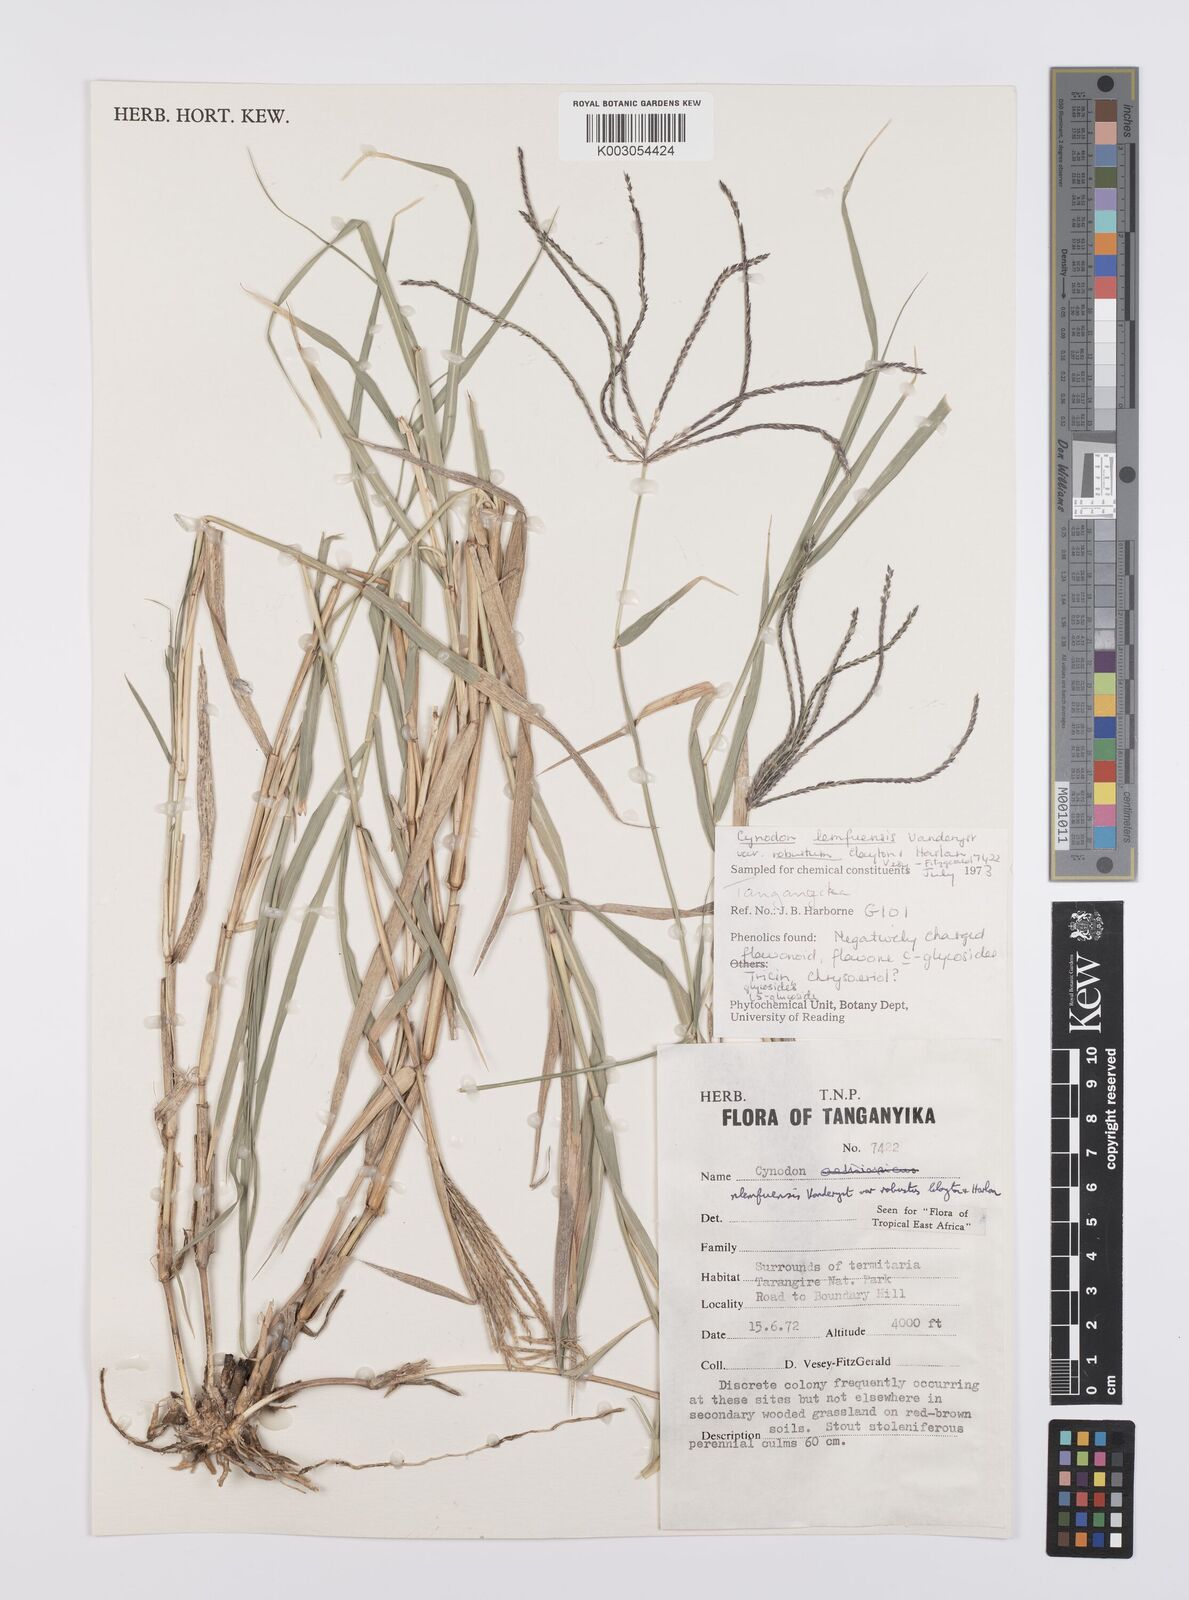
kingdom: Plantae
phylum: Tracheophyta
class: Liliopsida
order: Poales
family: Poaceae
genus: Cynodon
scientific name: Cynodon nlemfuensis
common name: African bermudagrass
